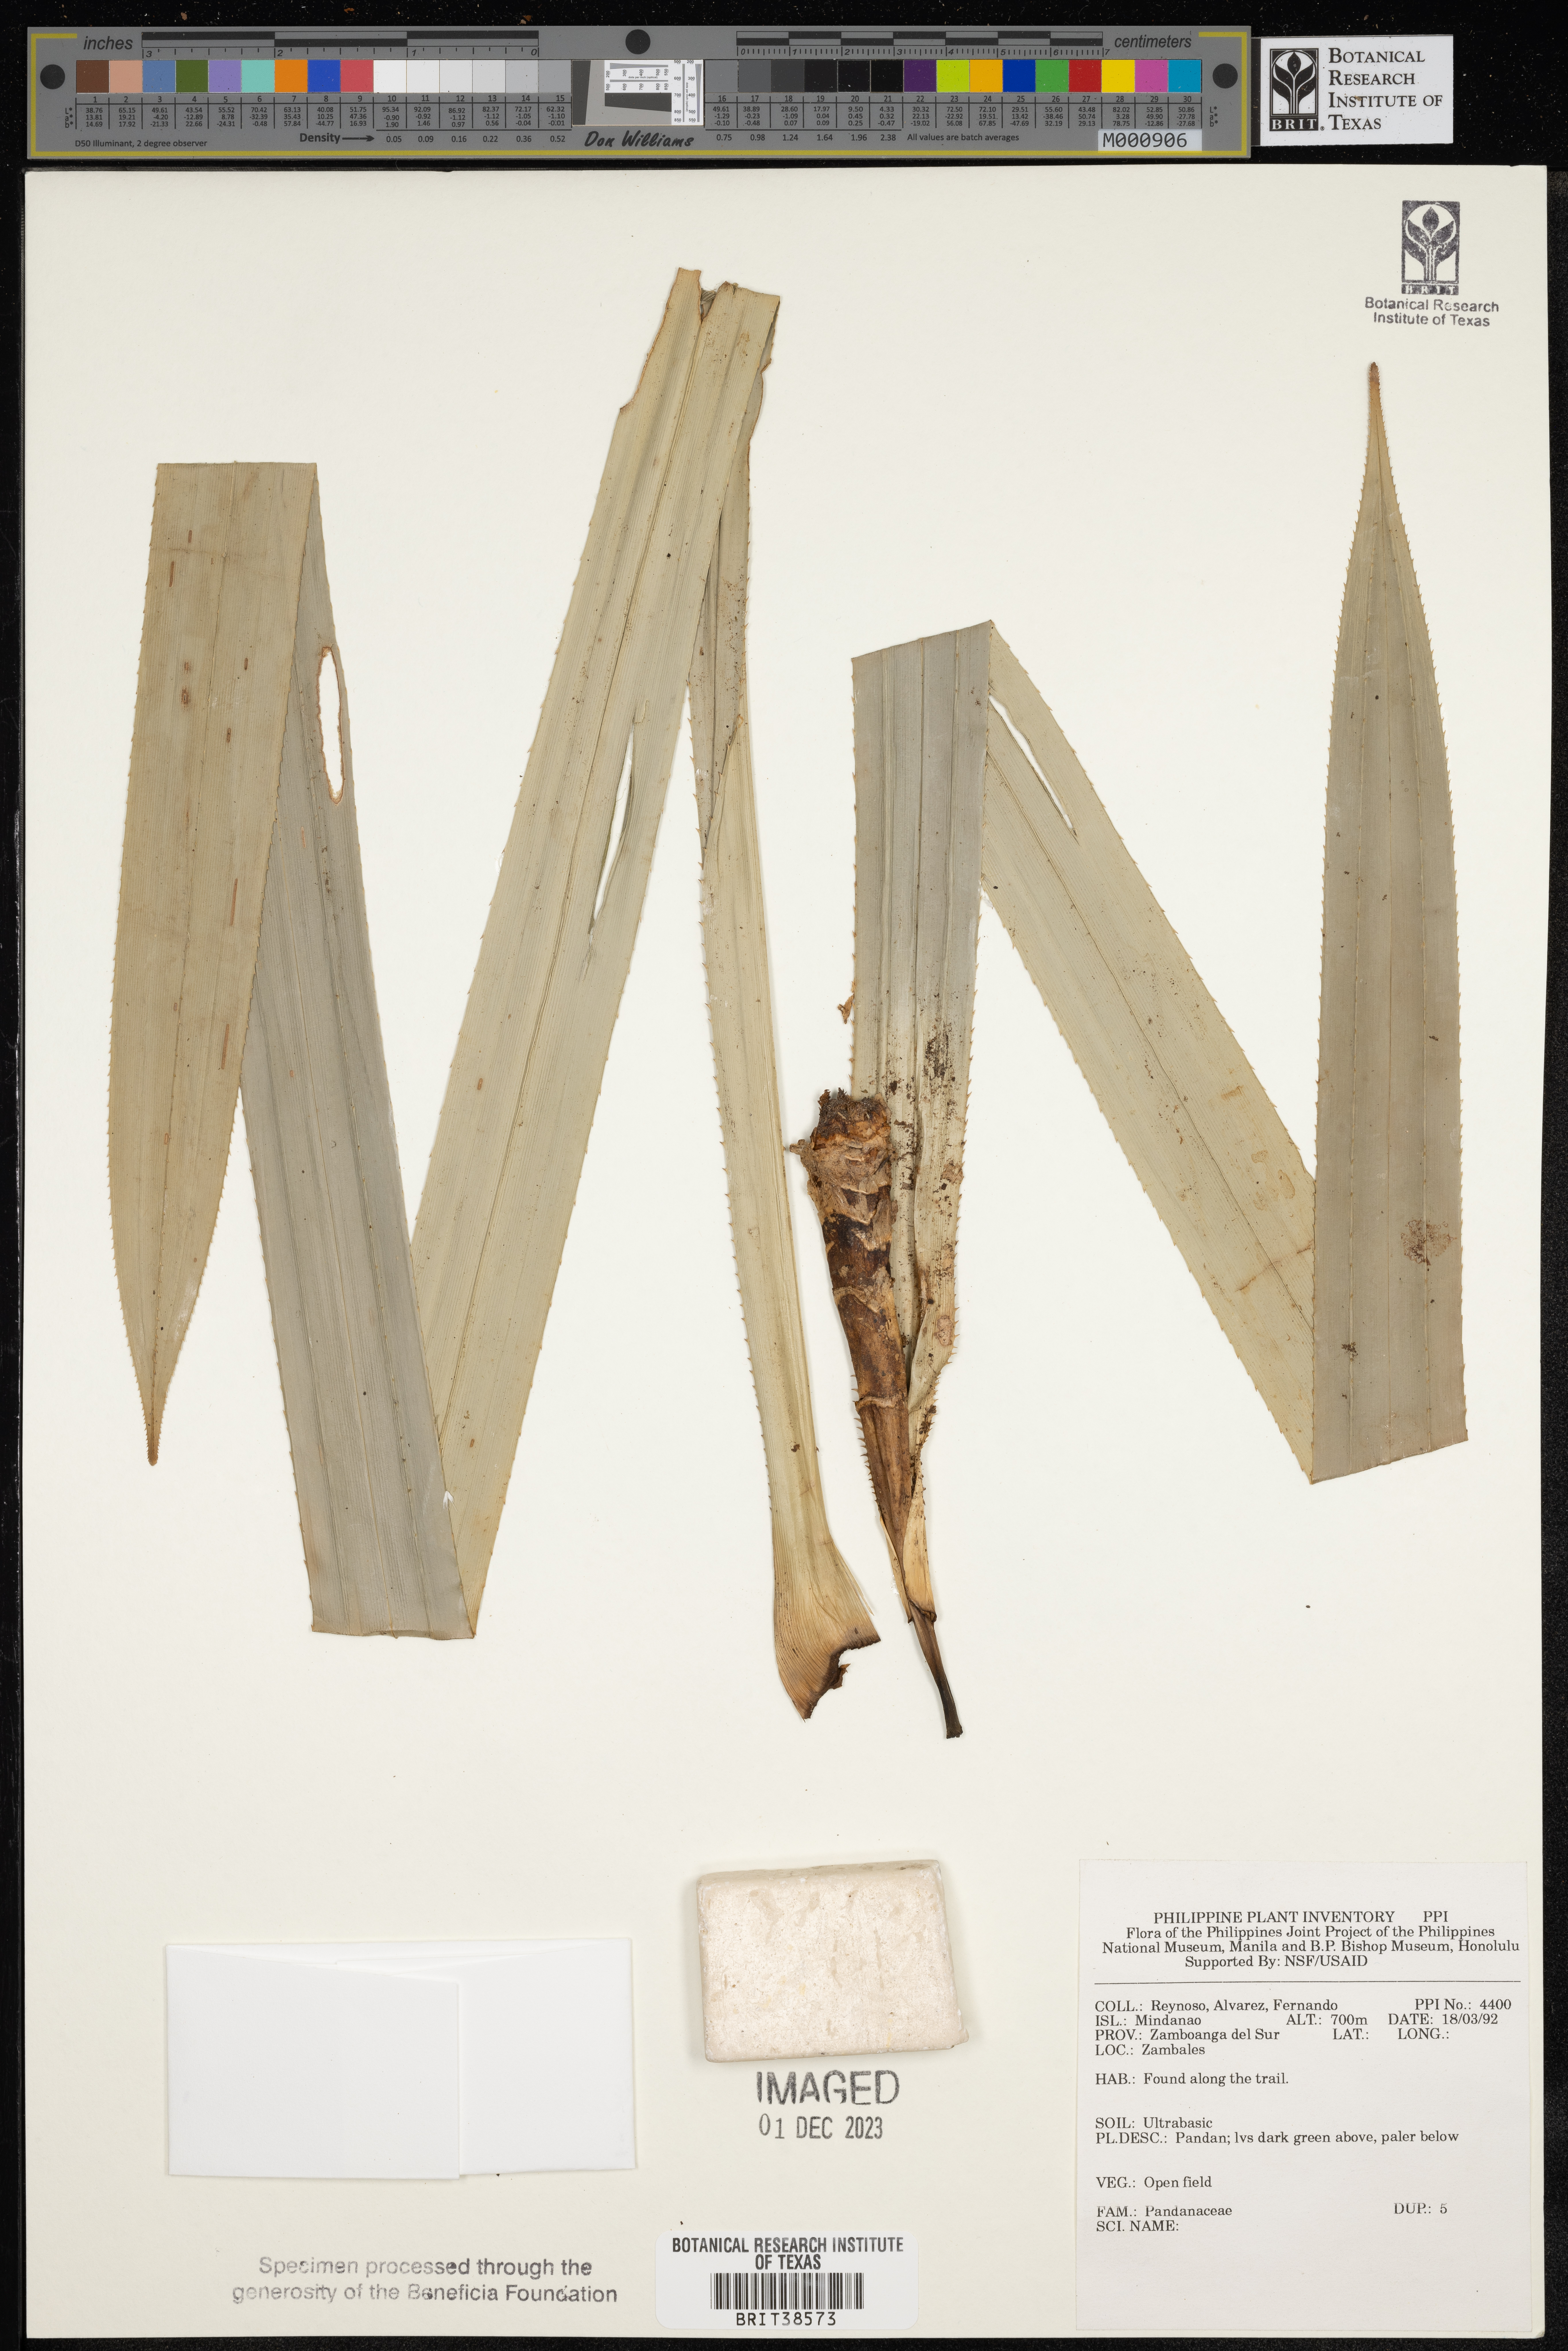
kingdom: Plantae
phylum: Tracheophyta
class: Liliopsida
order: Pandanales
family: Pandanaceae
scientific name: Pandanaceae
